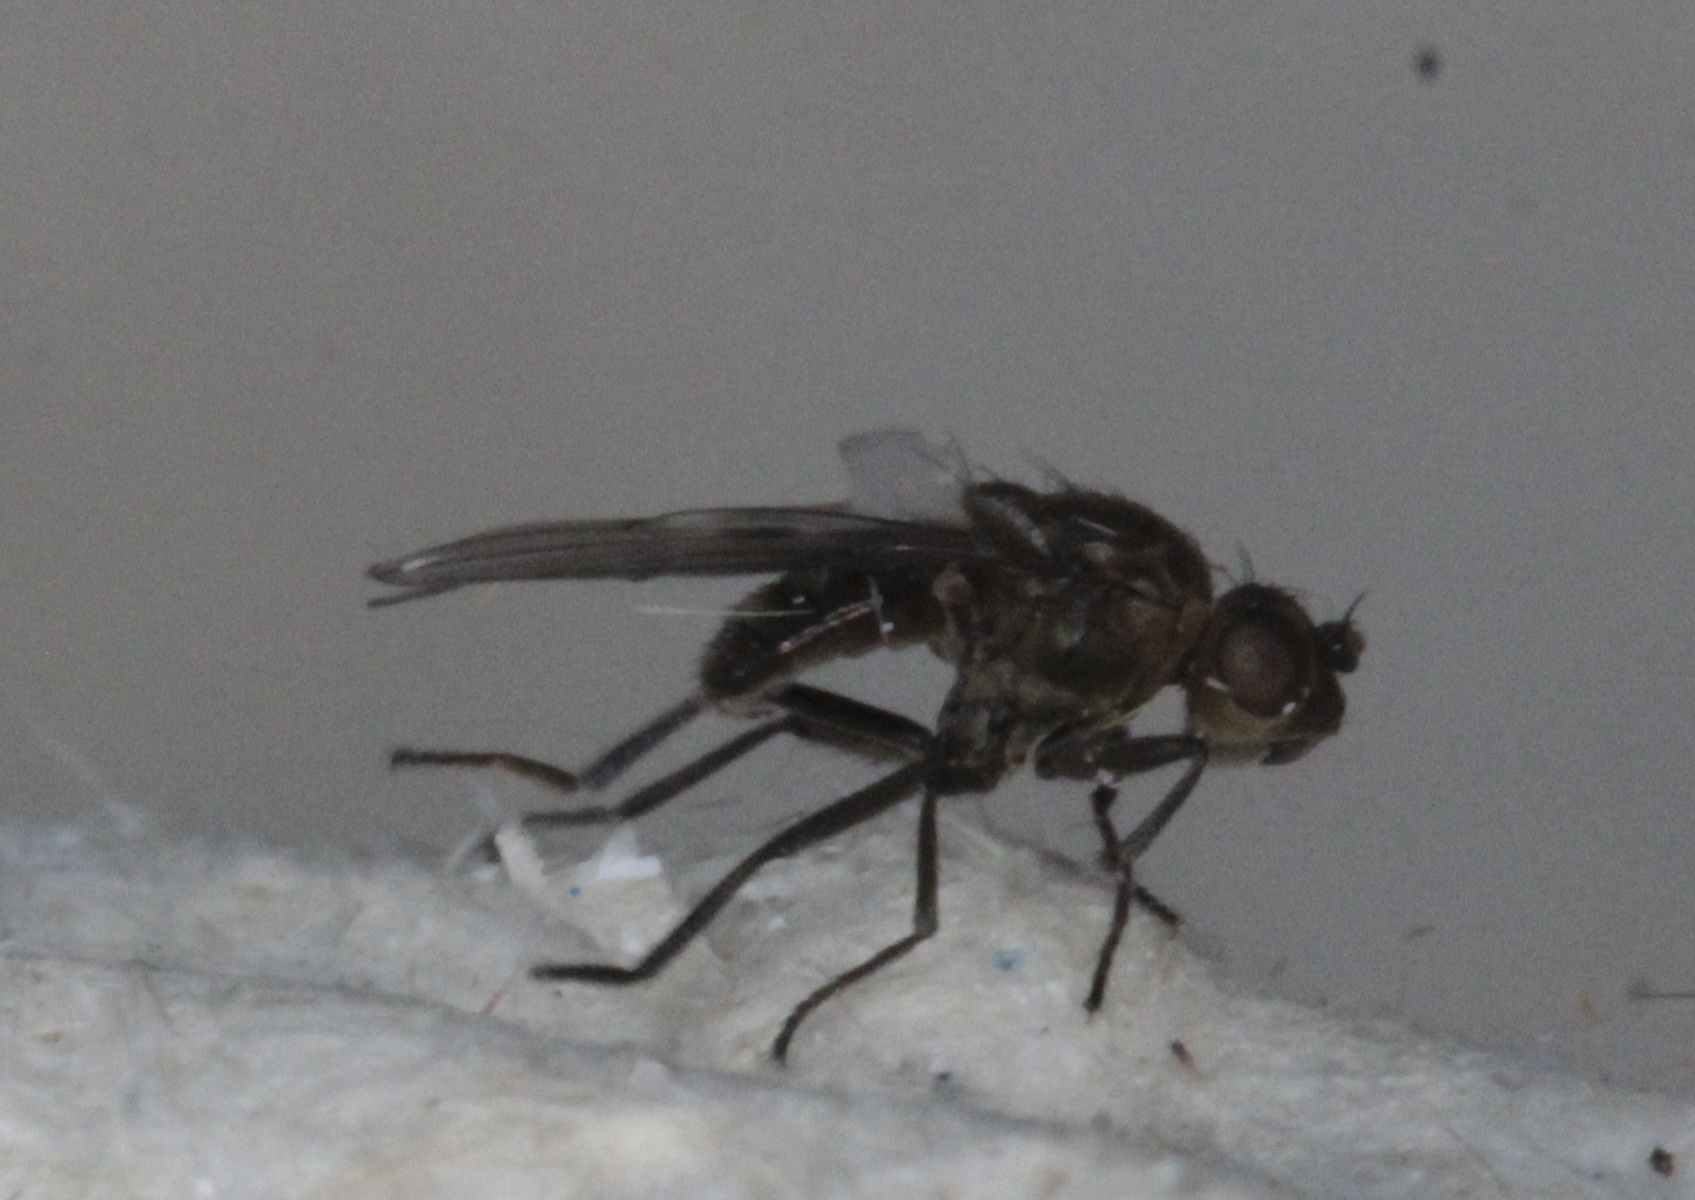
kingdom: Animalia
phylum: Arthropoda
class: Insecta
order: Diptera
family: Ephydridae
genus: Parydra
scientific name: Parydra
